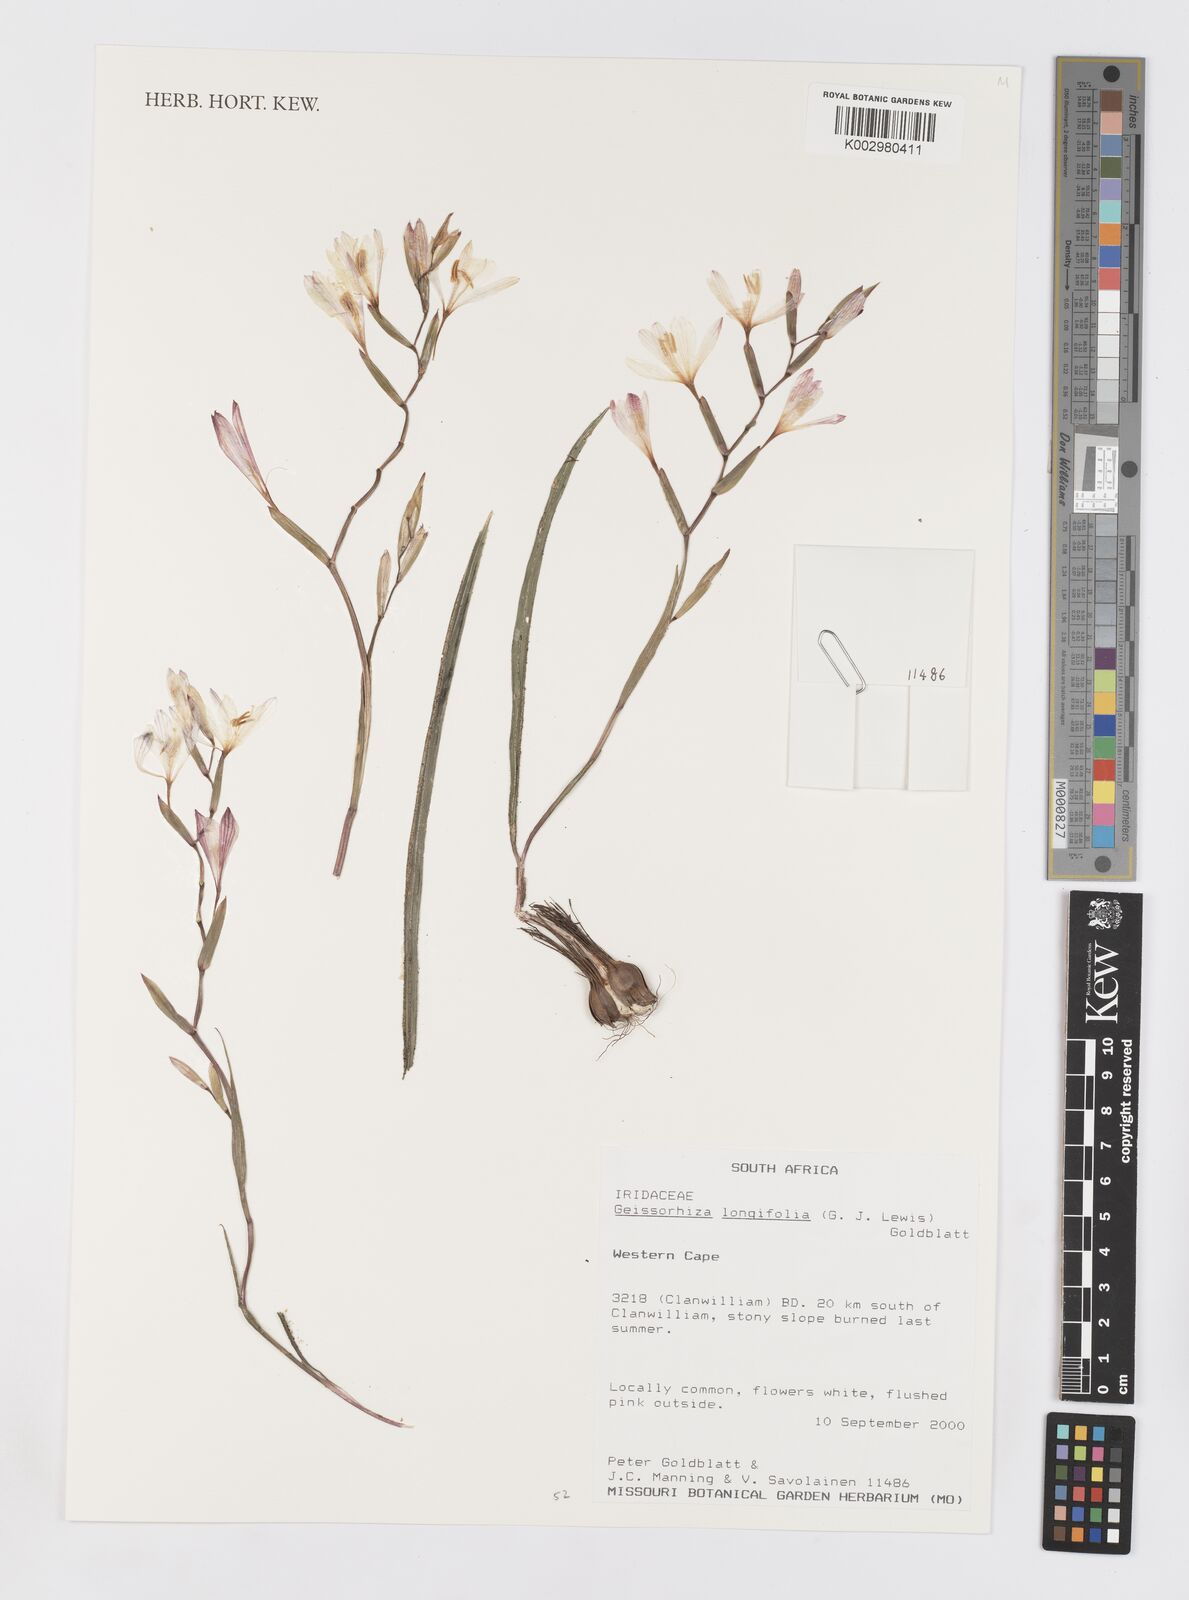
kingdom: Plantae
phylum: Tracheophyta
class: Liliopsida
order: Asparagales
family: Iridaceae
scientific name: Iridaceae
